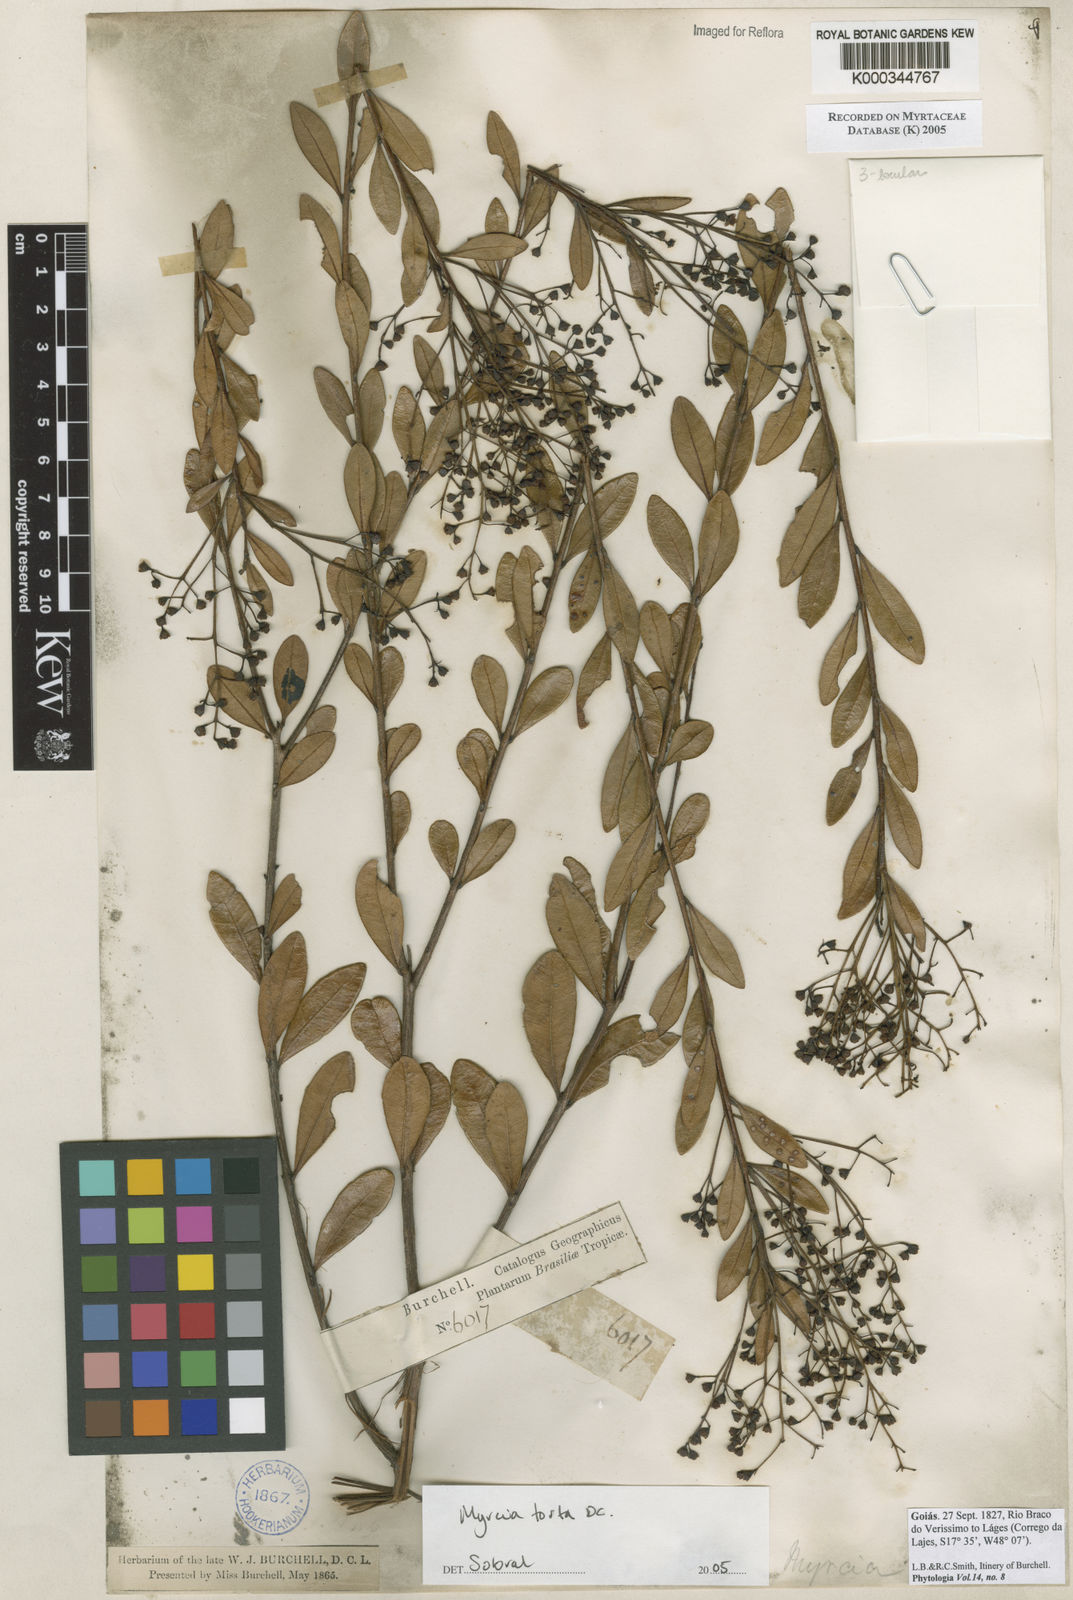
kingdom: Plantae
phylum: Tracheophyta
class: Magnoliopsida
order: Myrtales
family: Myrtaceae
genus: Myrcia
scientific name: Myrcia guianensis
